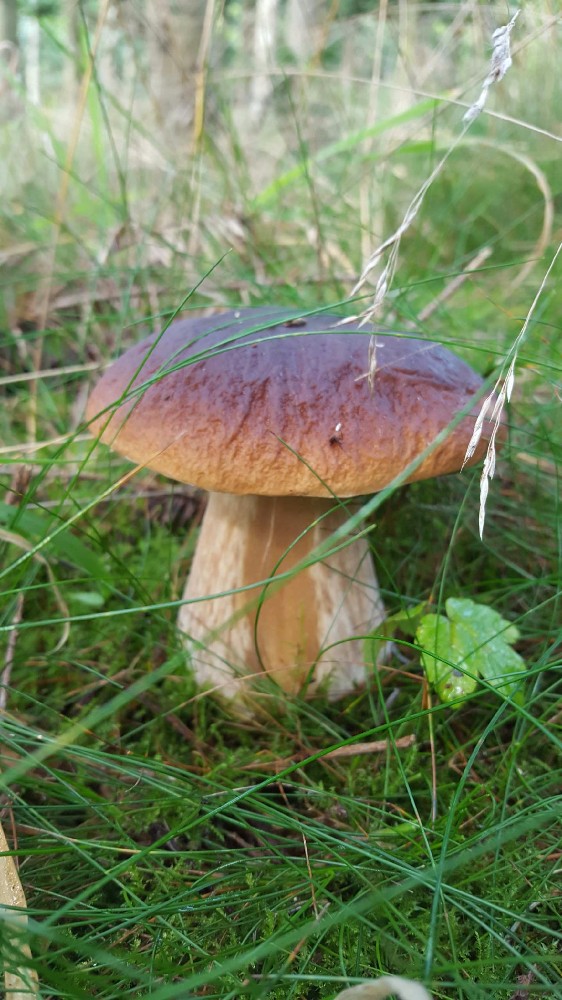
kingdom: Fungi
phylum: Basidiomycota
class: Agaricomycetes
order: Boletales
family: Boletaceae
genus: Boletus
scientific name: Boletus edulis
